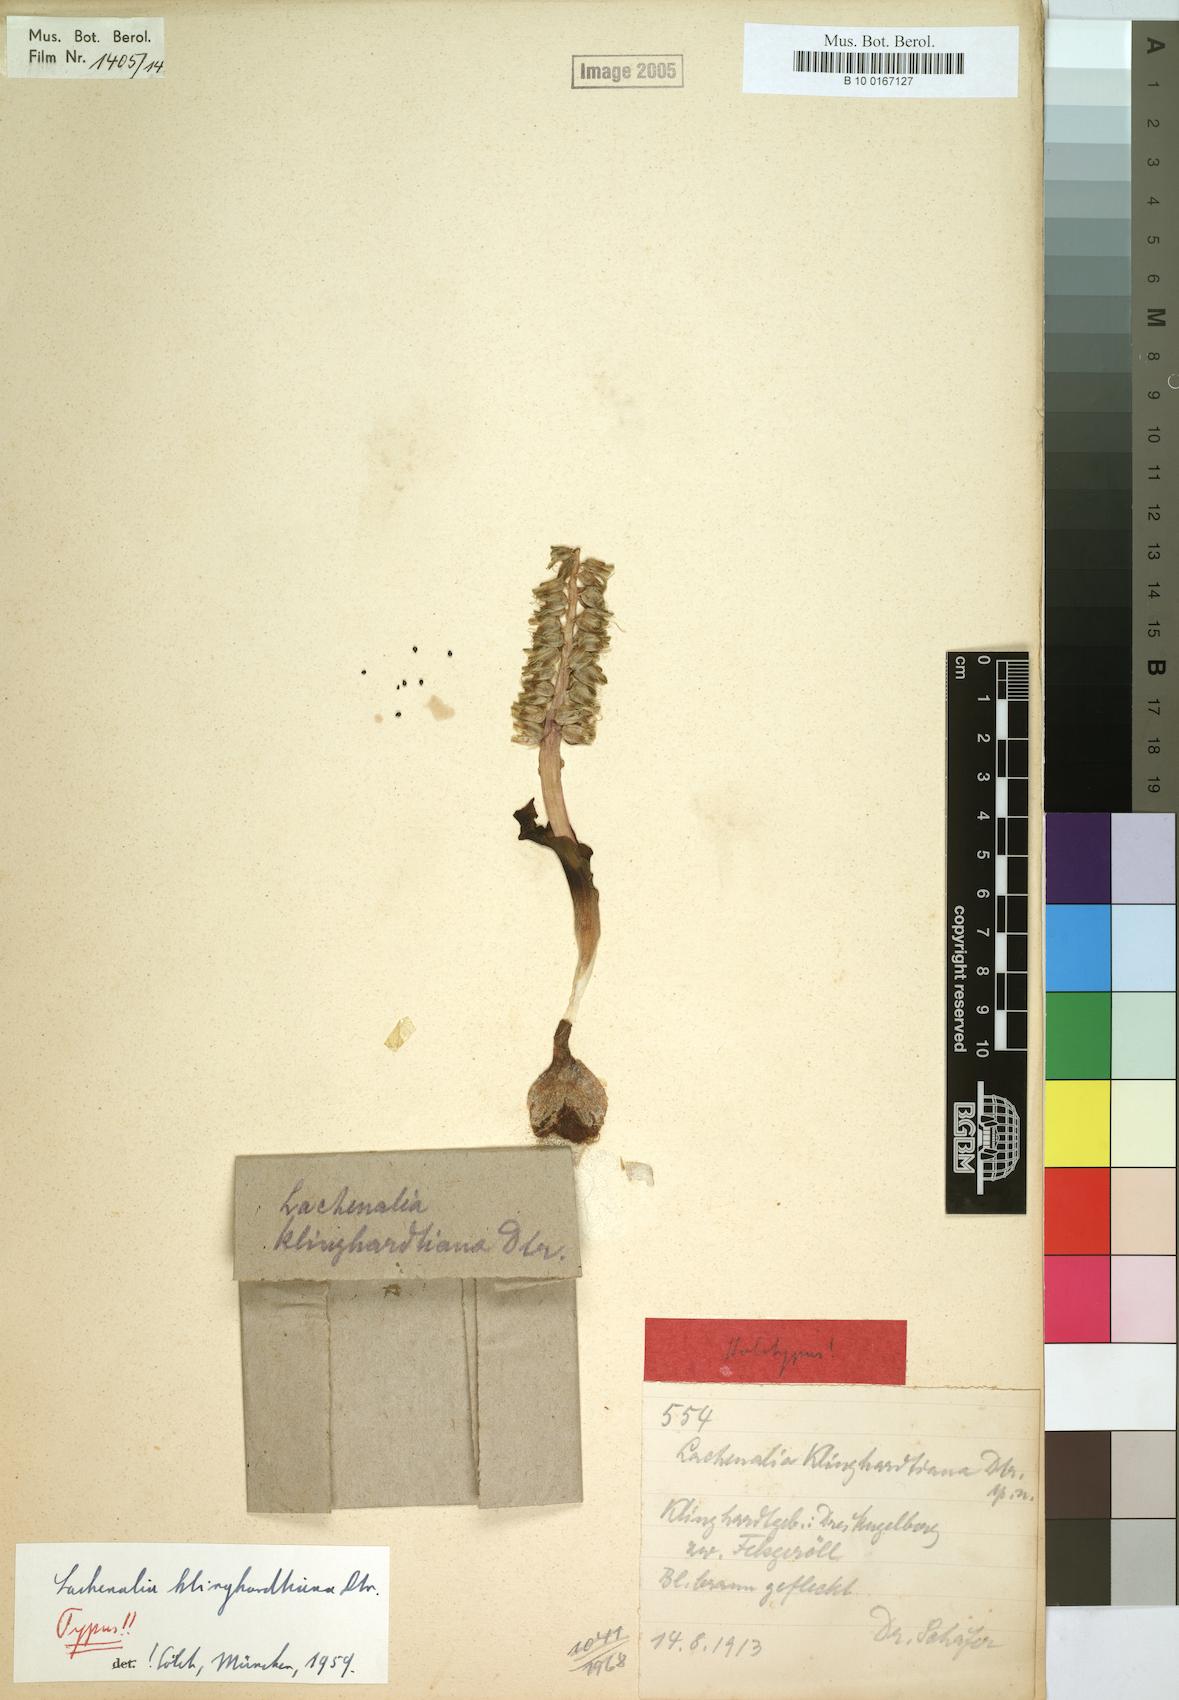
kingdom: Plantae
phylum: Tracheophyta
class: Liliopsida
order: Asparagales
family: Asparagaceae
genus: Lachenalia
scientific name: Lachenalia klinghardtiana
